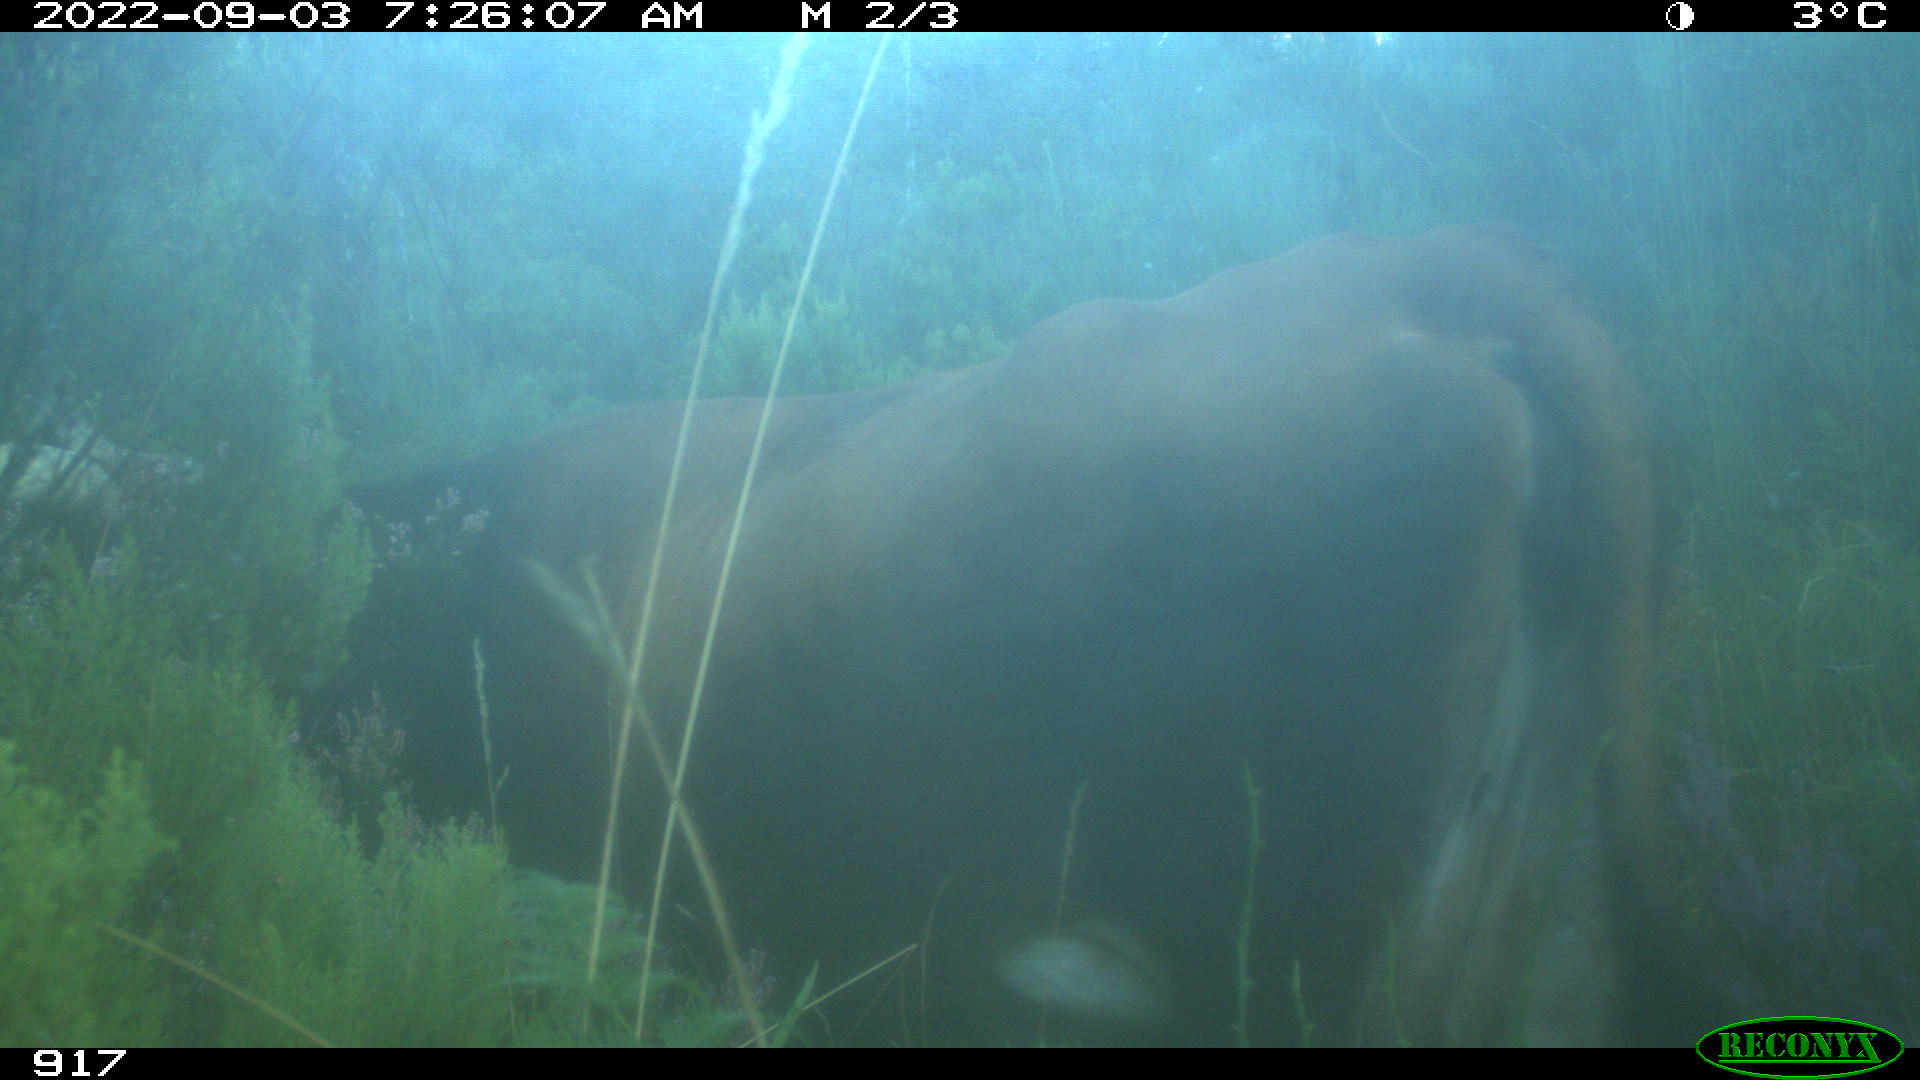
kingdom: Animalia
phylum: Chordata
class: Mammalia
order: Artiodactyla
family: Bovidae
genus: Bos
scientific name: Bos taurus
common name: Domesticated cattle
